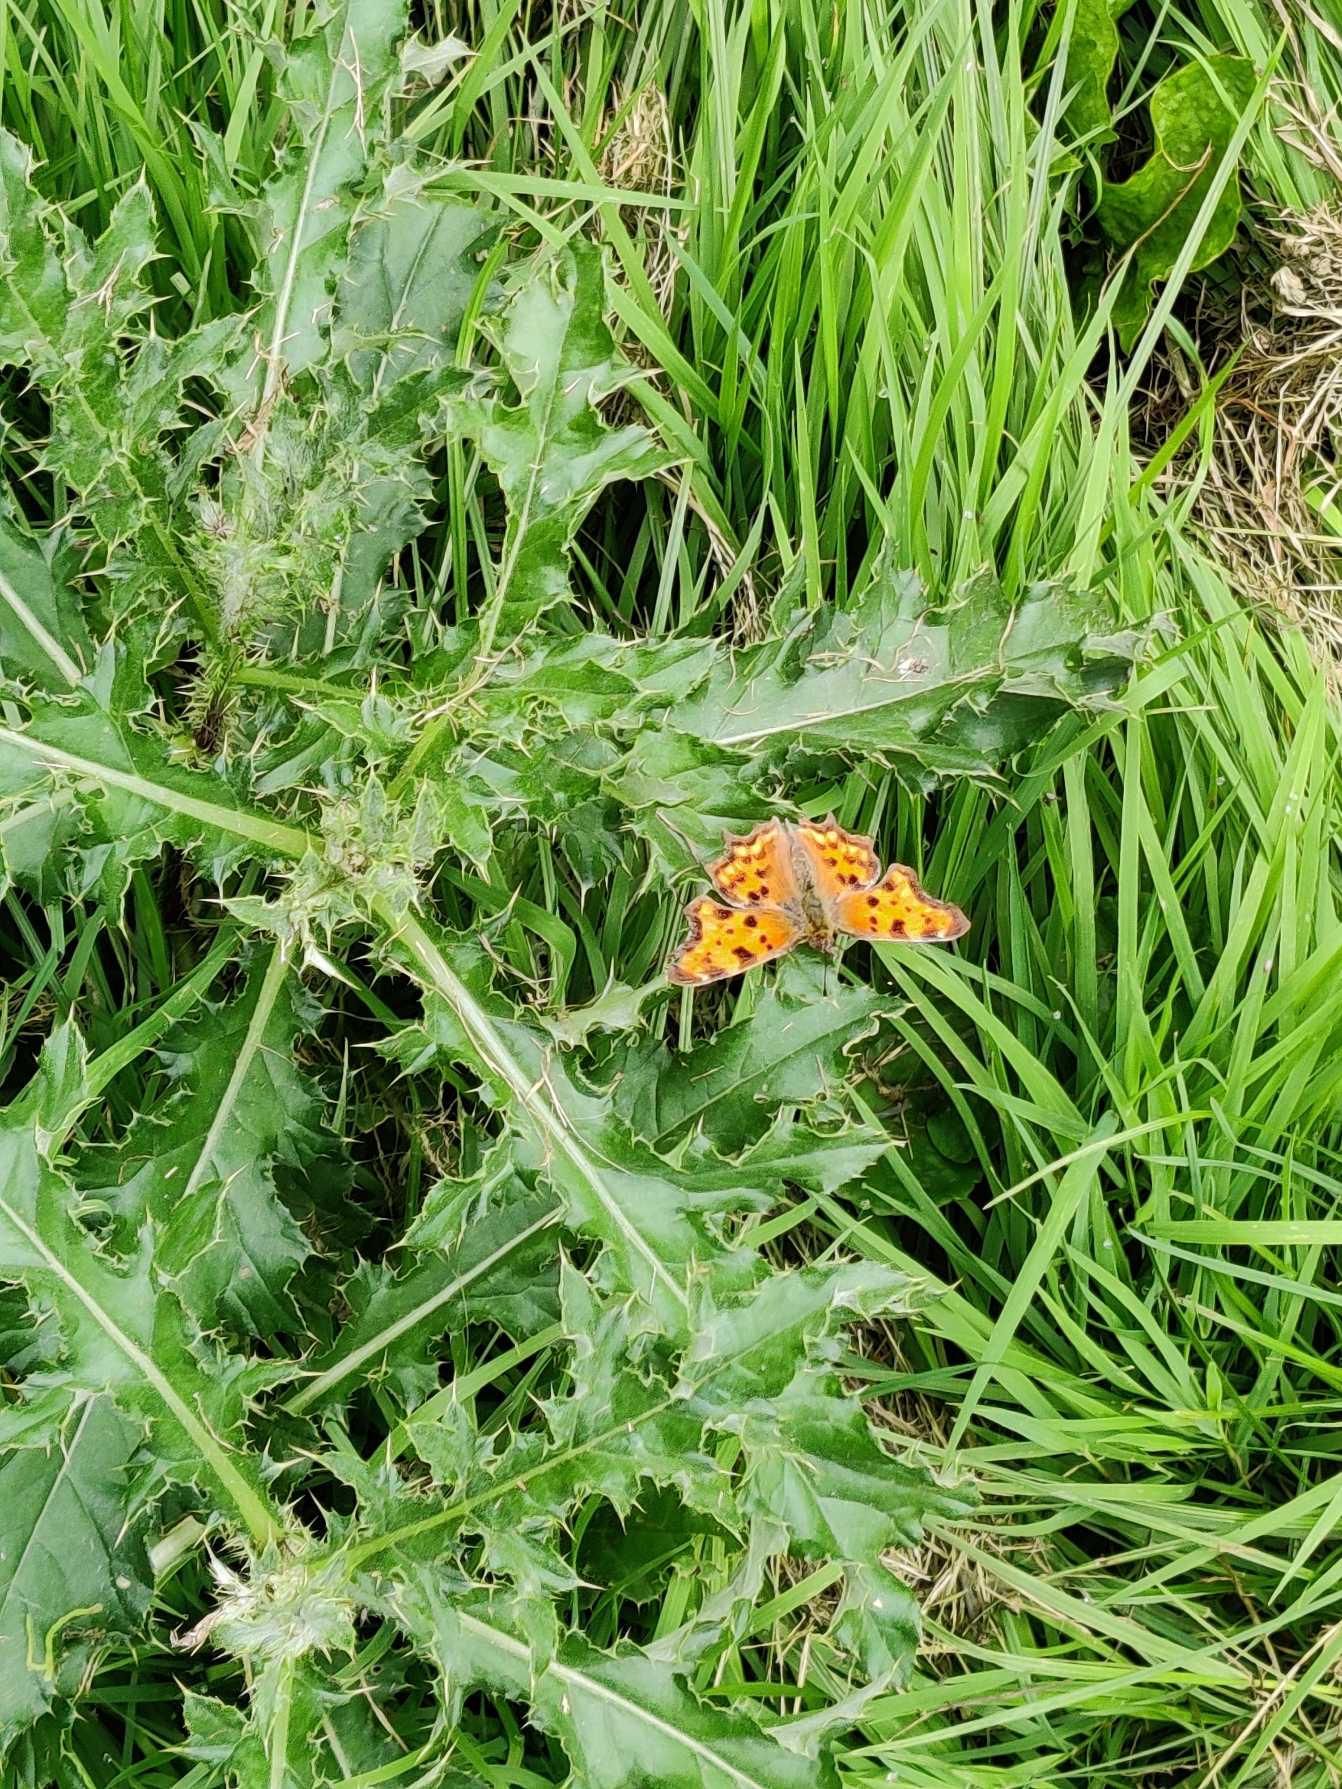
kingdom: Animalia
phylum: Arthropoda
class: Insecta
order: Lepidoptera
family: Nymphalidae
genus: Polygonia
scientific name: Polygonia c-album
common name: Det hvide C
